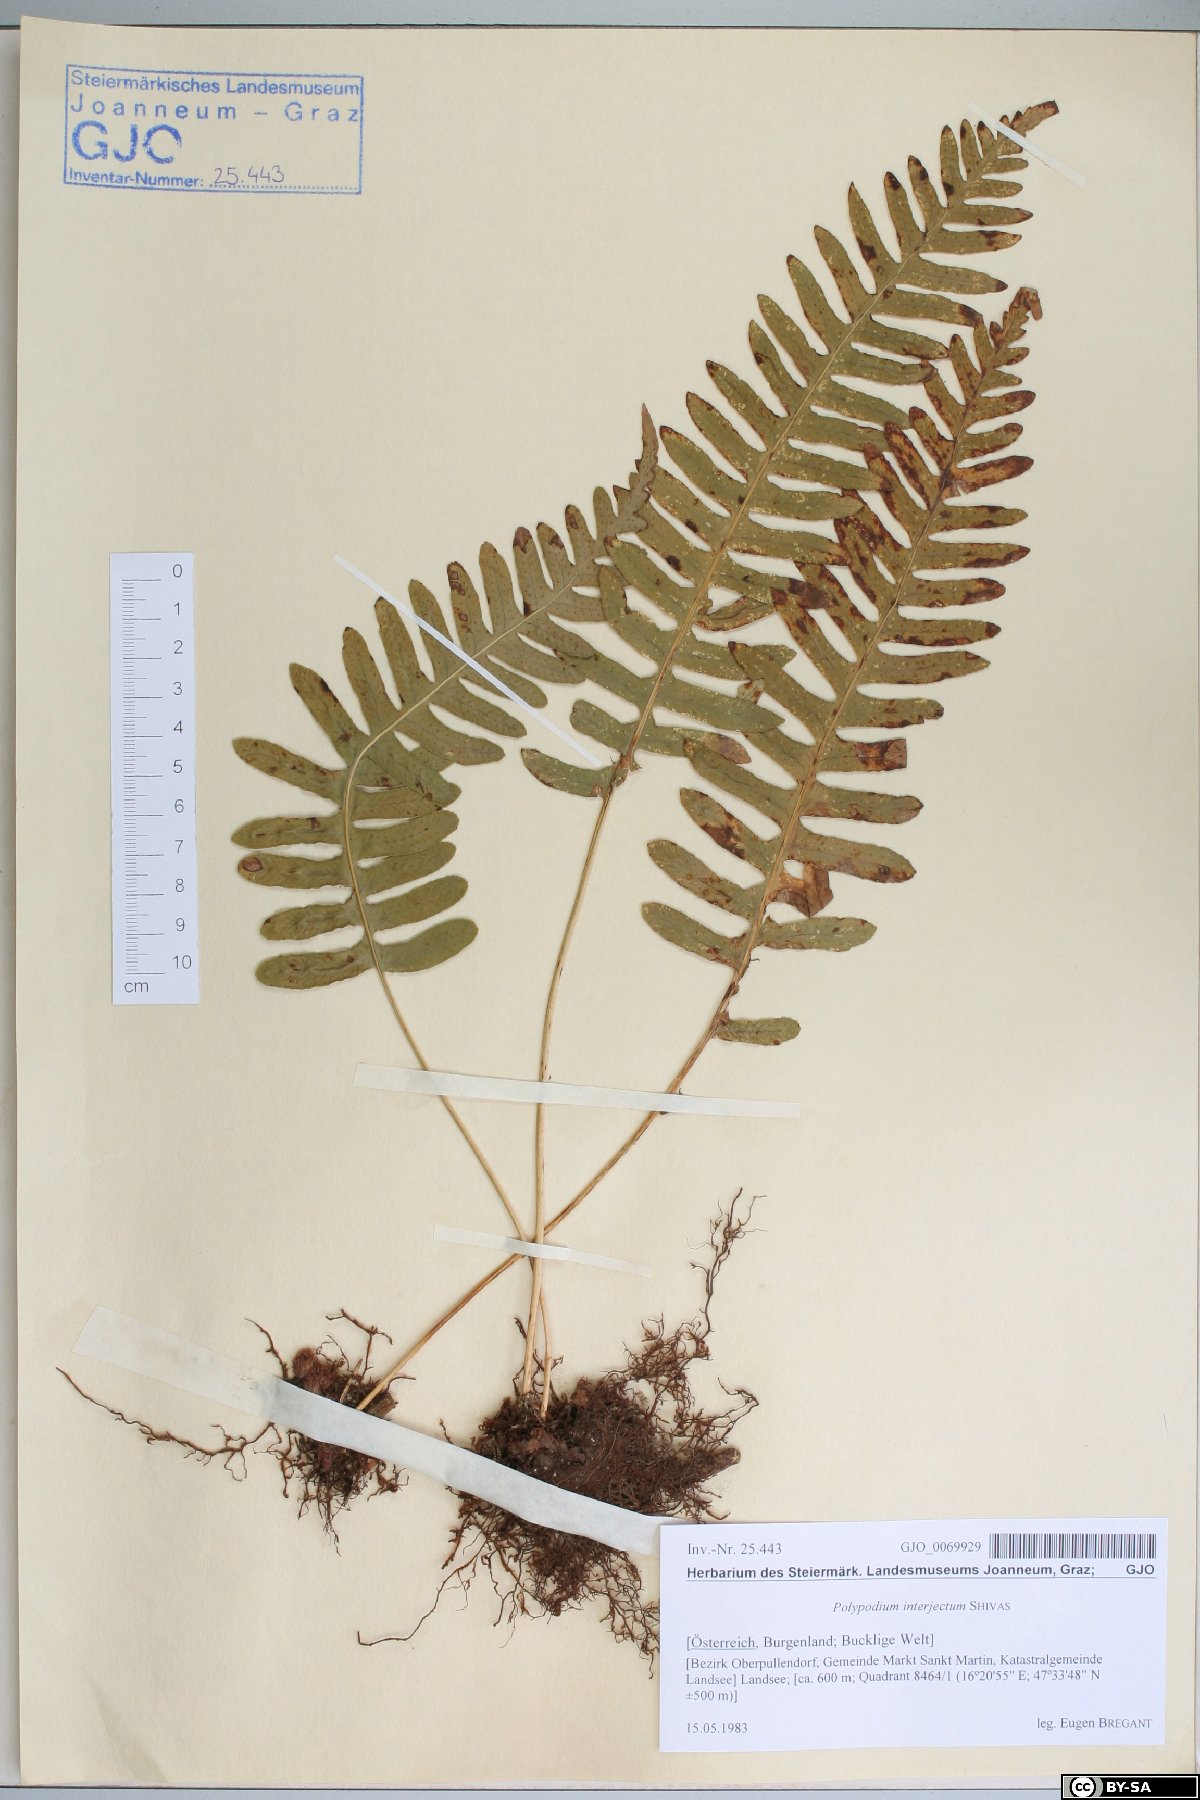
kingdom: Plantae
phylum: Tracheophyta
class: Polypodiopsida
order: Polypodiales
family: Polypodiaceae
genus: Polypodium
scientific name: Polypodium interjectum
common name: Intermediate polypody
